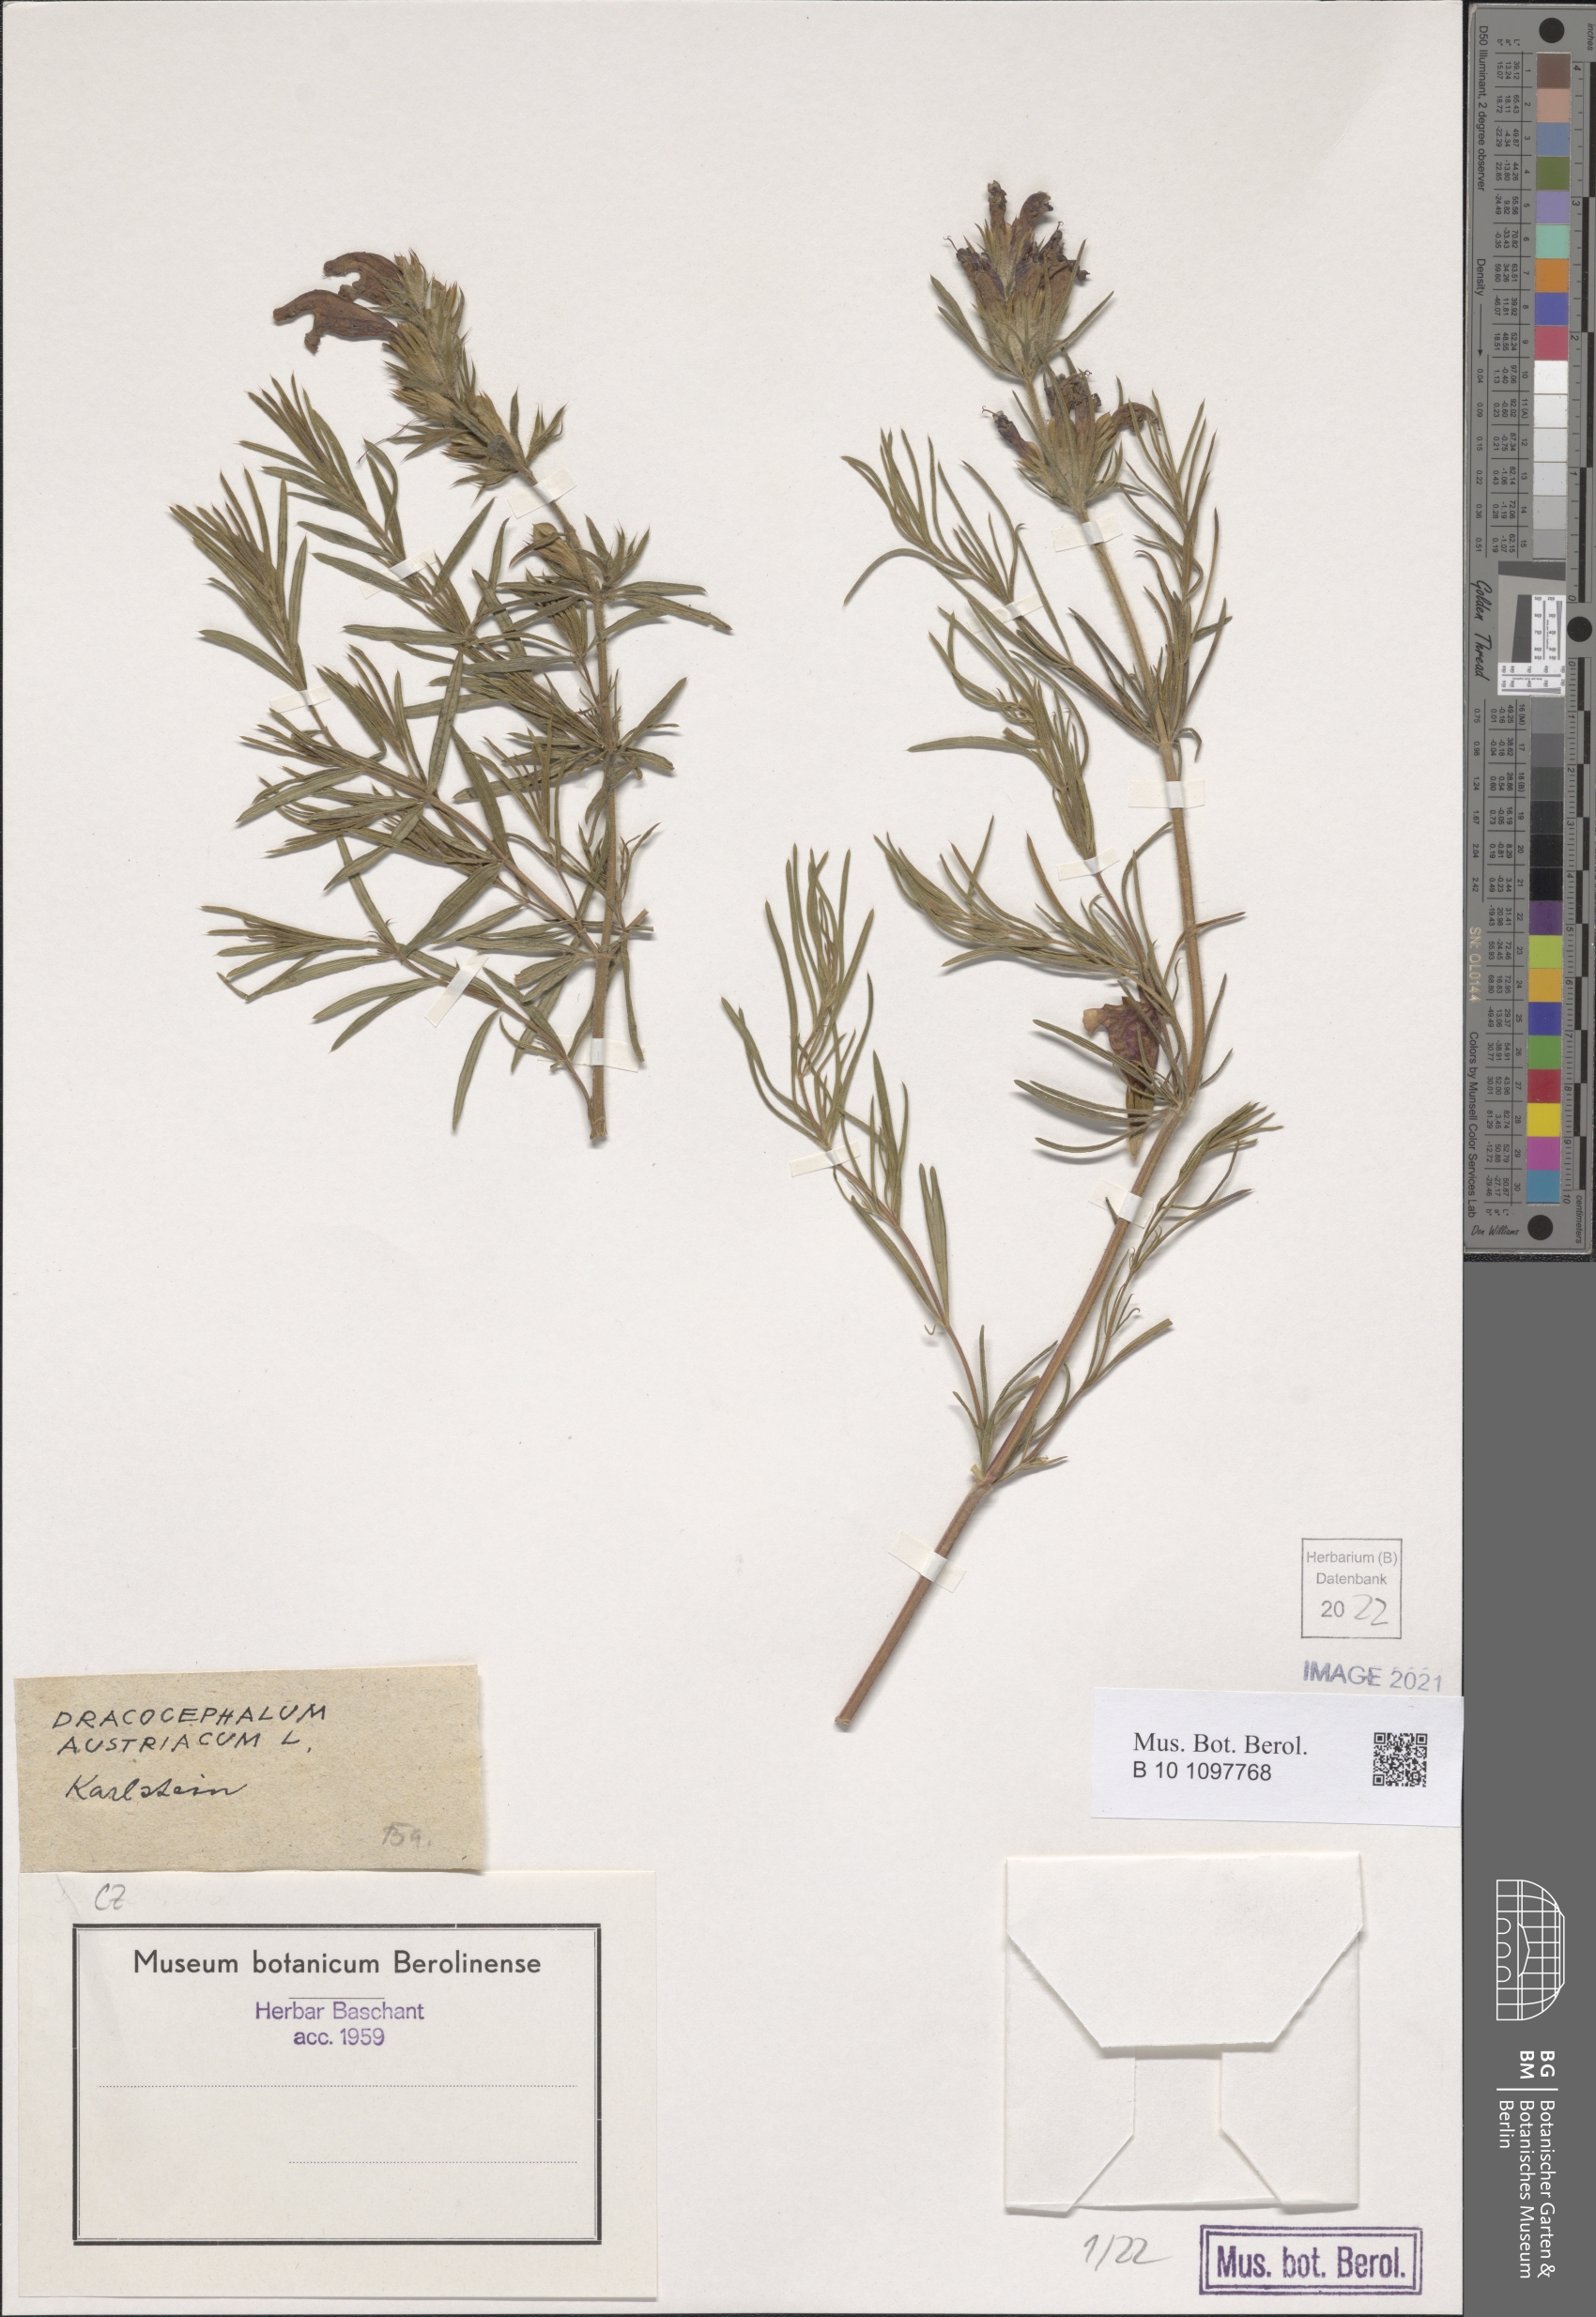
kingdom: Plantae
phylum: Tracheophyta
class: Magnoliopsida
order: Lamiales
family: Lamiaceae
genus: Dracocephalum
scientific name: Dracocephalum austriacum
